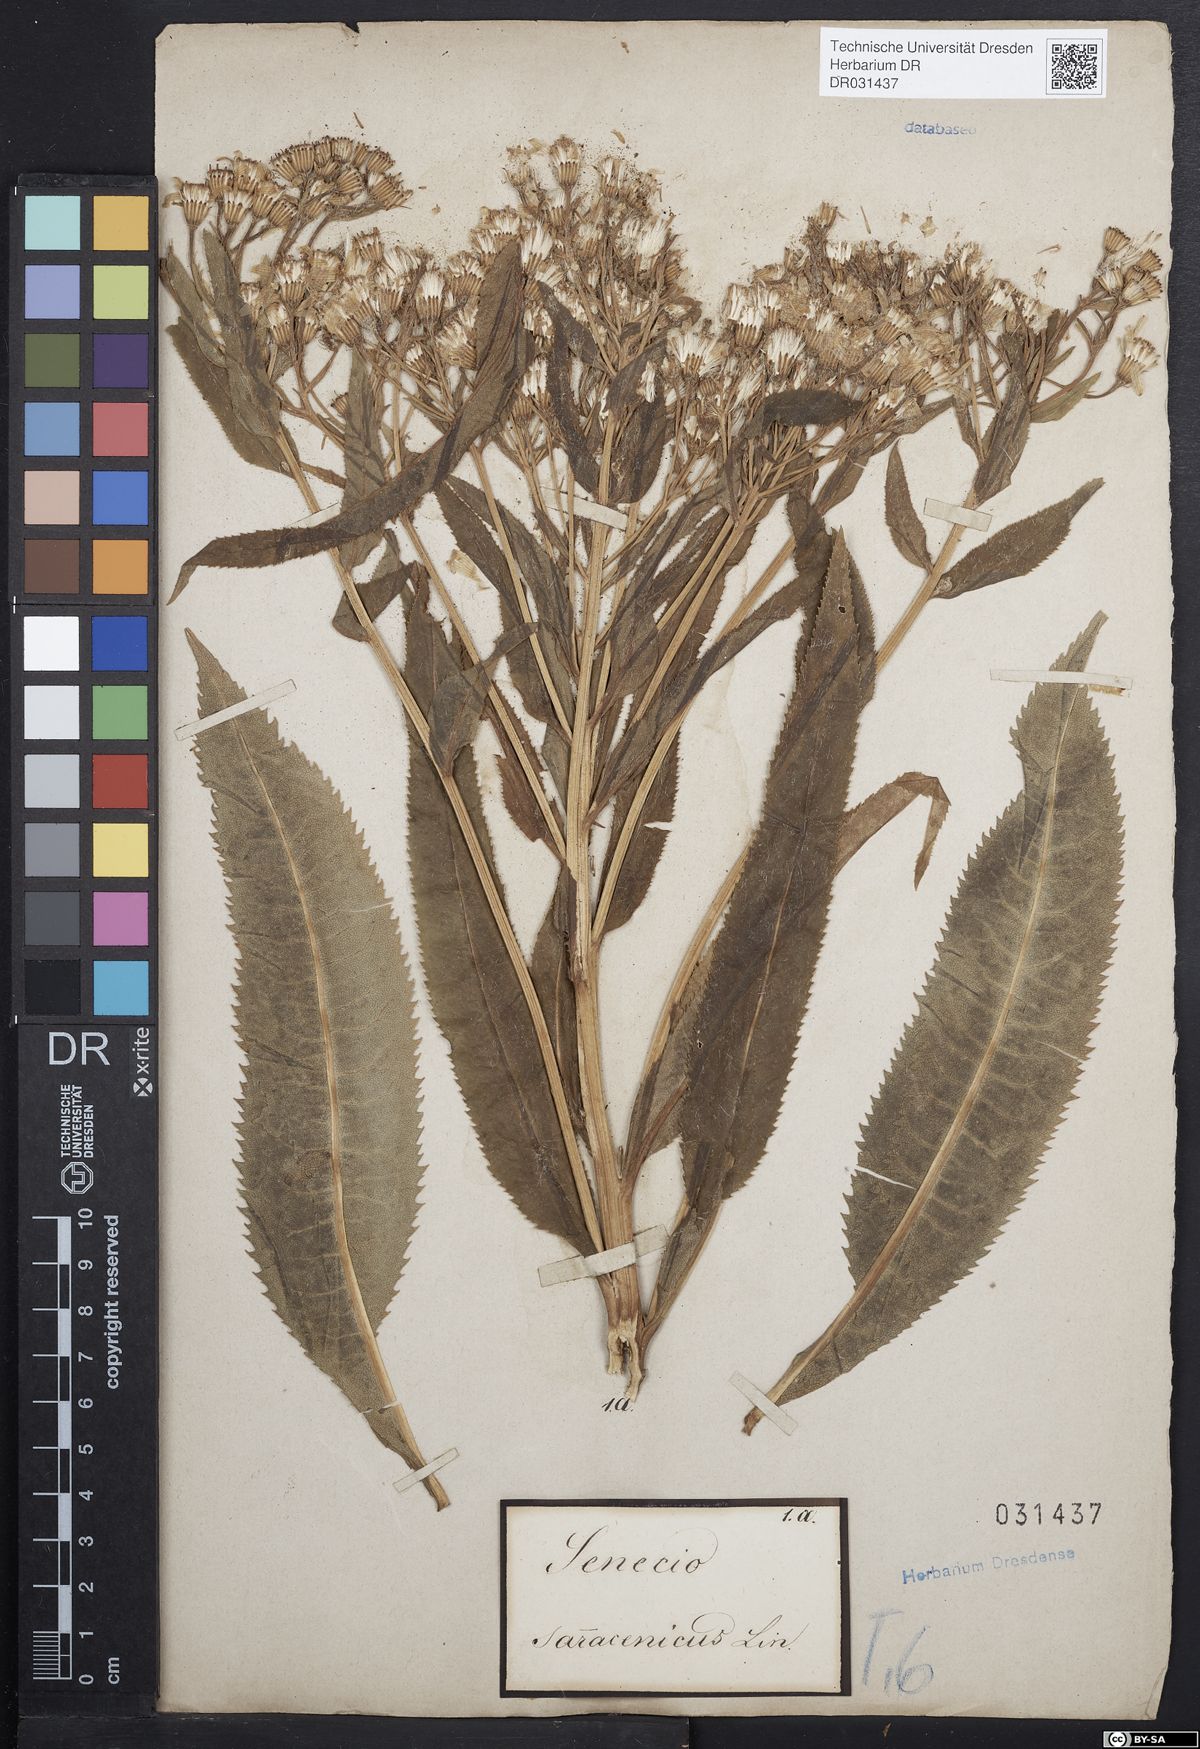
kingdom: Plantae
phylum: Tracheophyta
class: Magnoliopsida
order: Asterales
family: Asteraceae
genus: Senecio
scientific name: Senecio saracenicus
